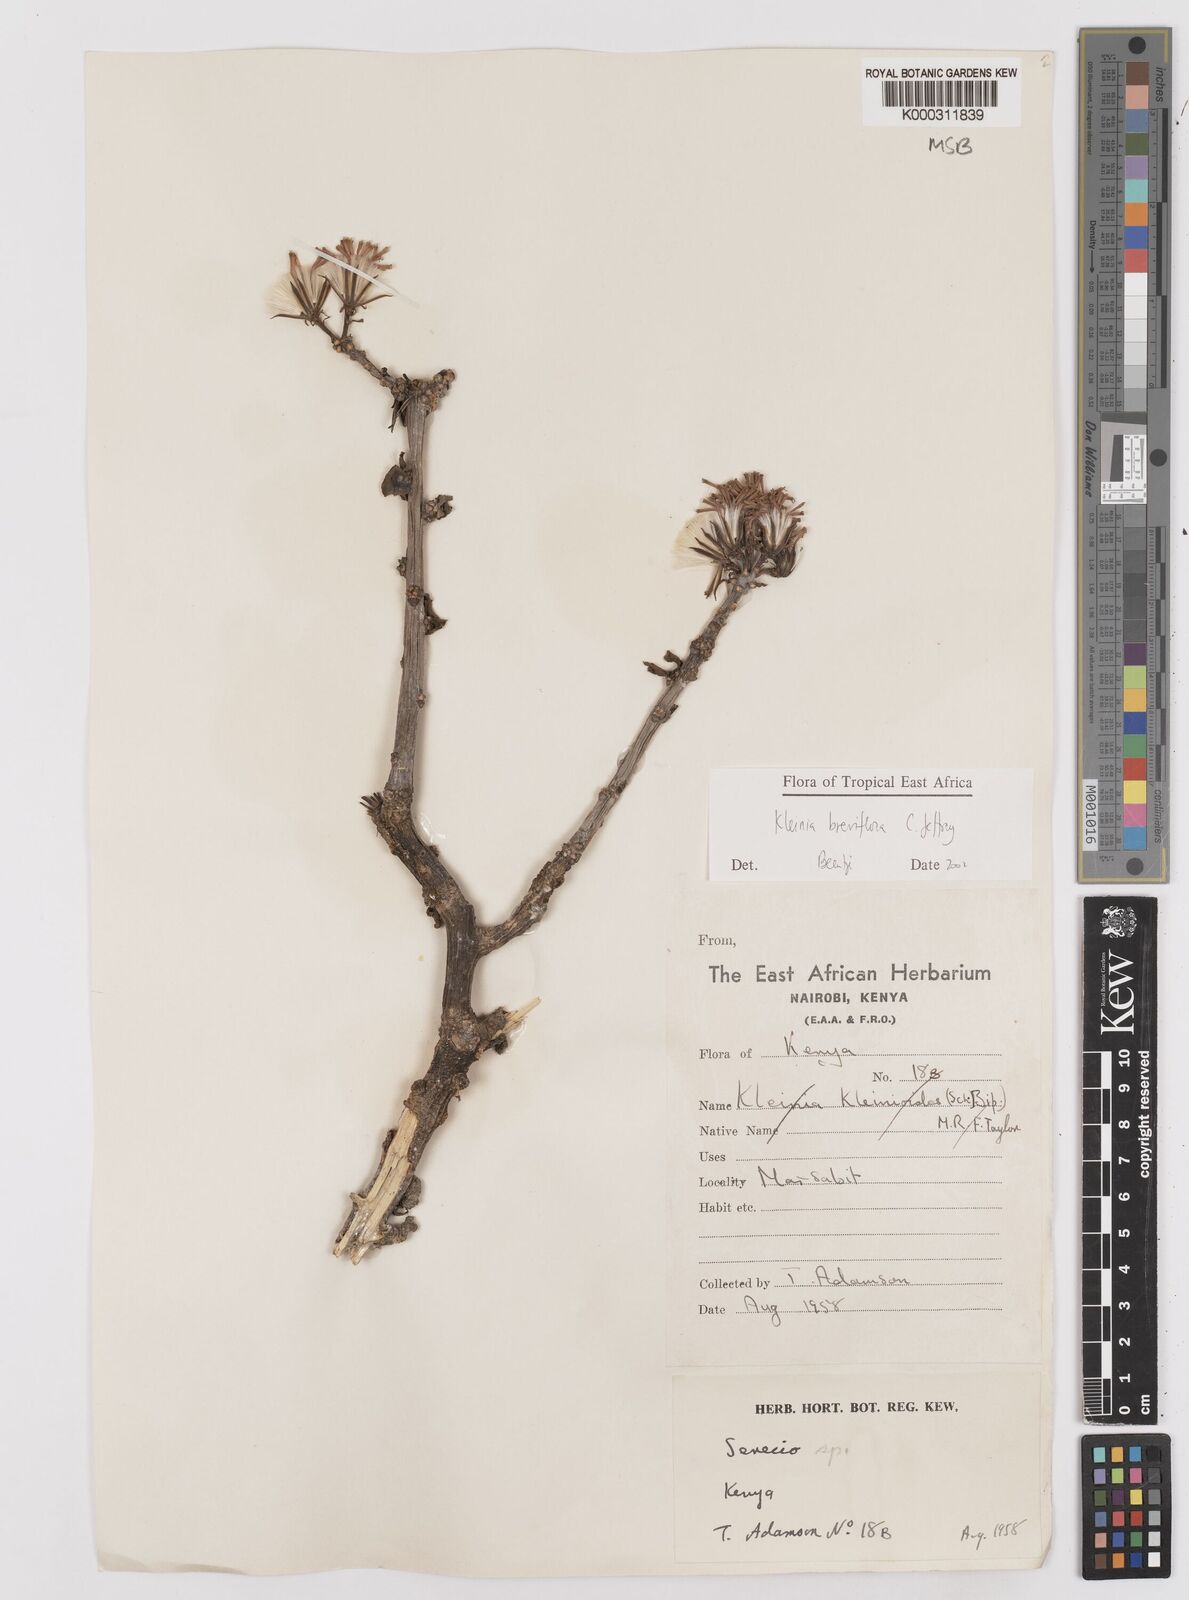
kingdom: Plantae
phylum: Tracheophyta
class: Magnoliopsida
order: Asterales
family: Asteraceae
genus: Kleinia
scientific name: Kleinia polycotoma
